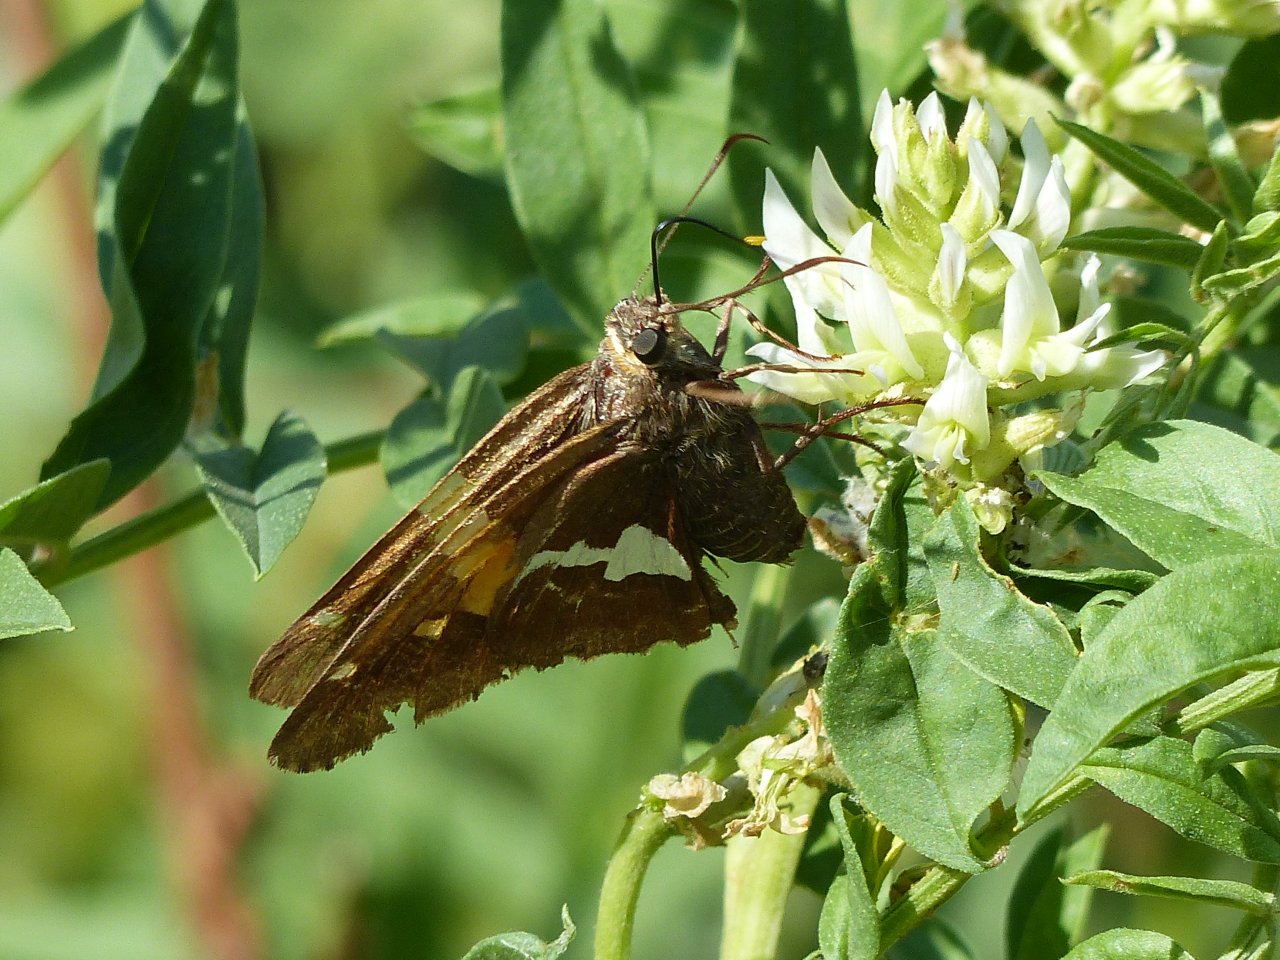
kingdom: Animalia
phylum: Arthropoda
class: Insecta
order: Lepidoptera
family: Hesperiidae
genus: Epargyreus
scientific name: Epargyreus clarus
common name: Silver-spotted Skipper
